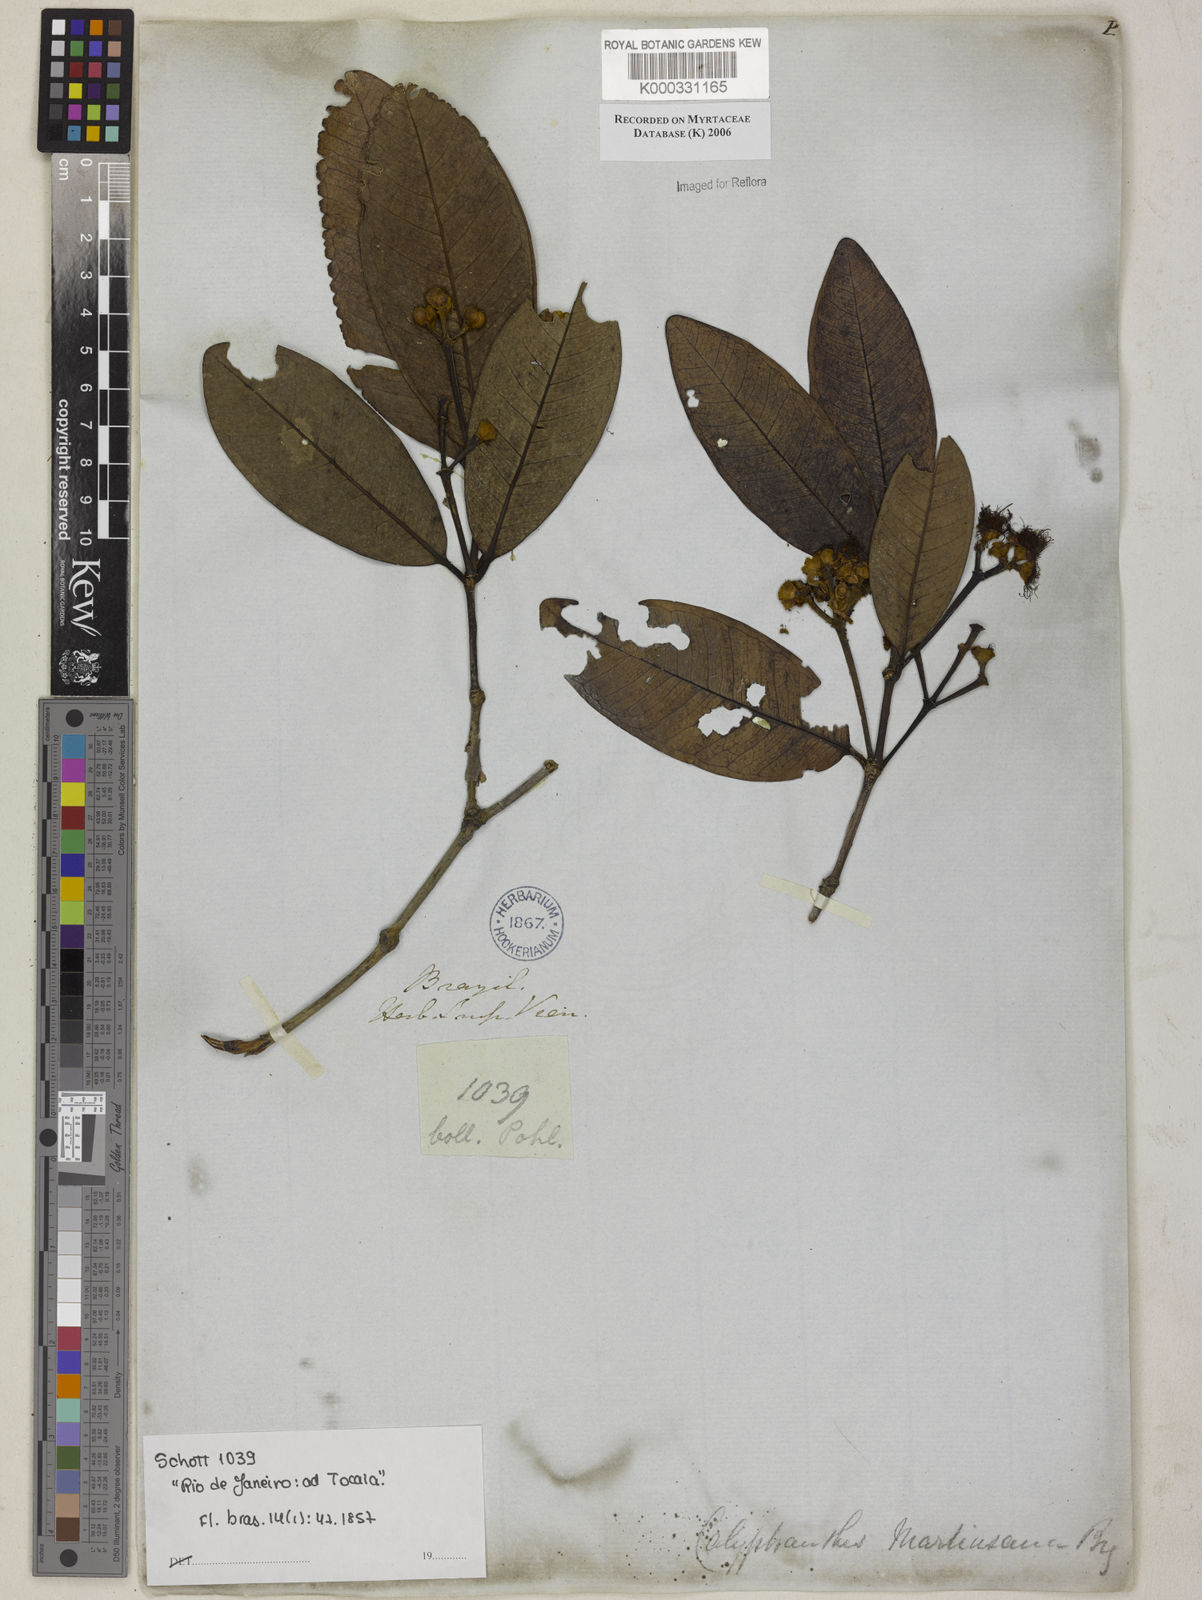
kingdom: Plantae
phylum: Tracheophyta
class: Magnoliopsida
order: Myrtales
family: Myrtaceae
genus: Myrcia
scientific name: Myrcia martiusiana
